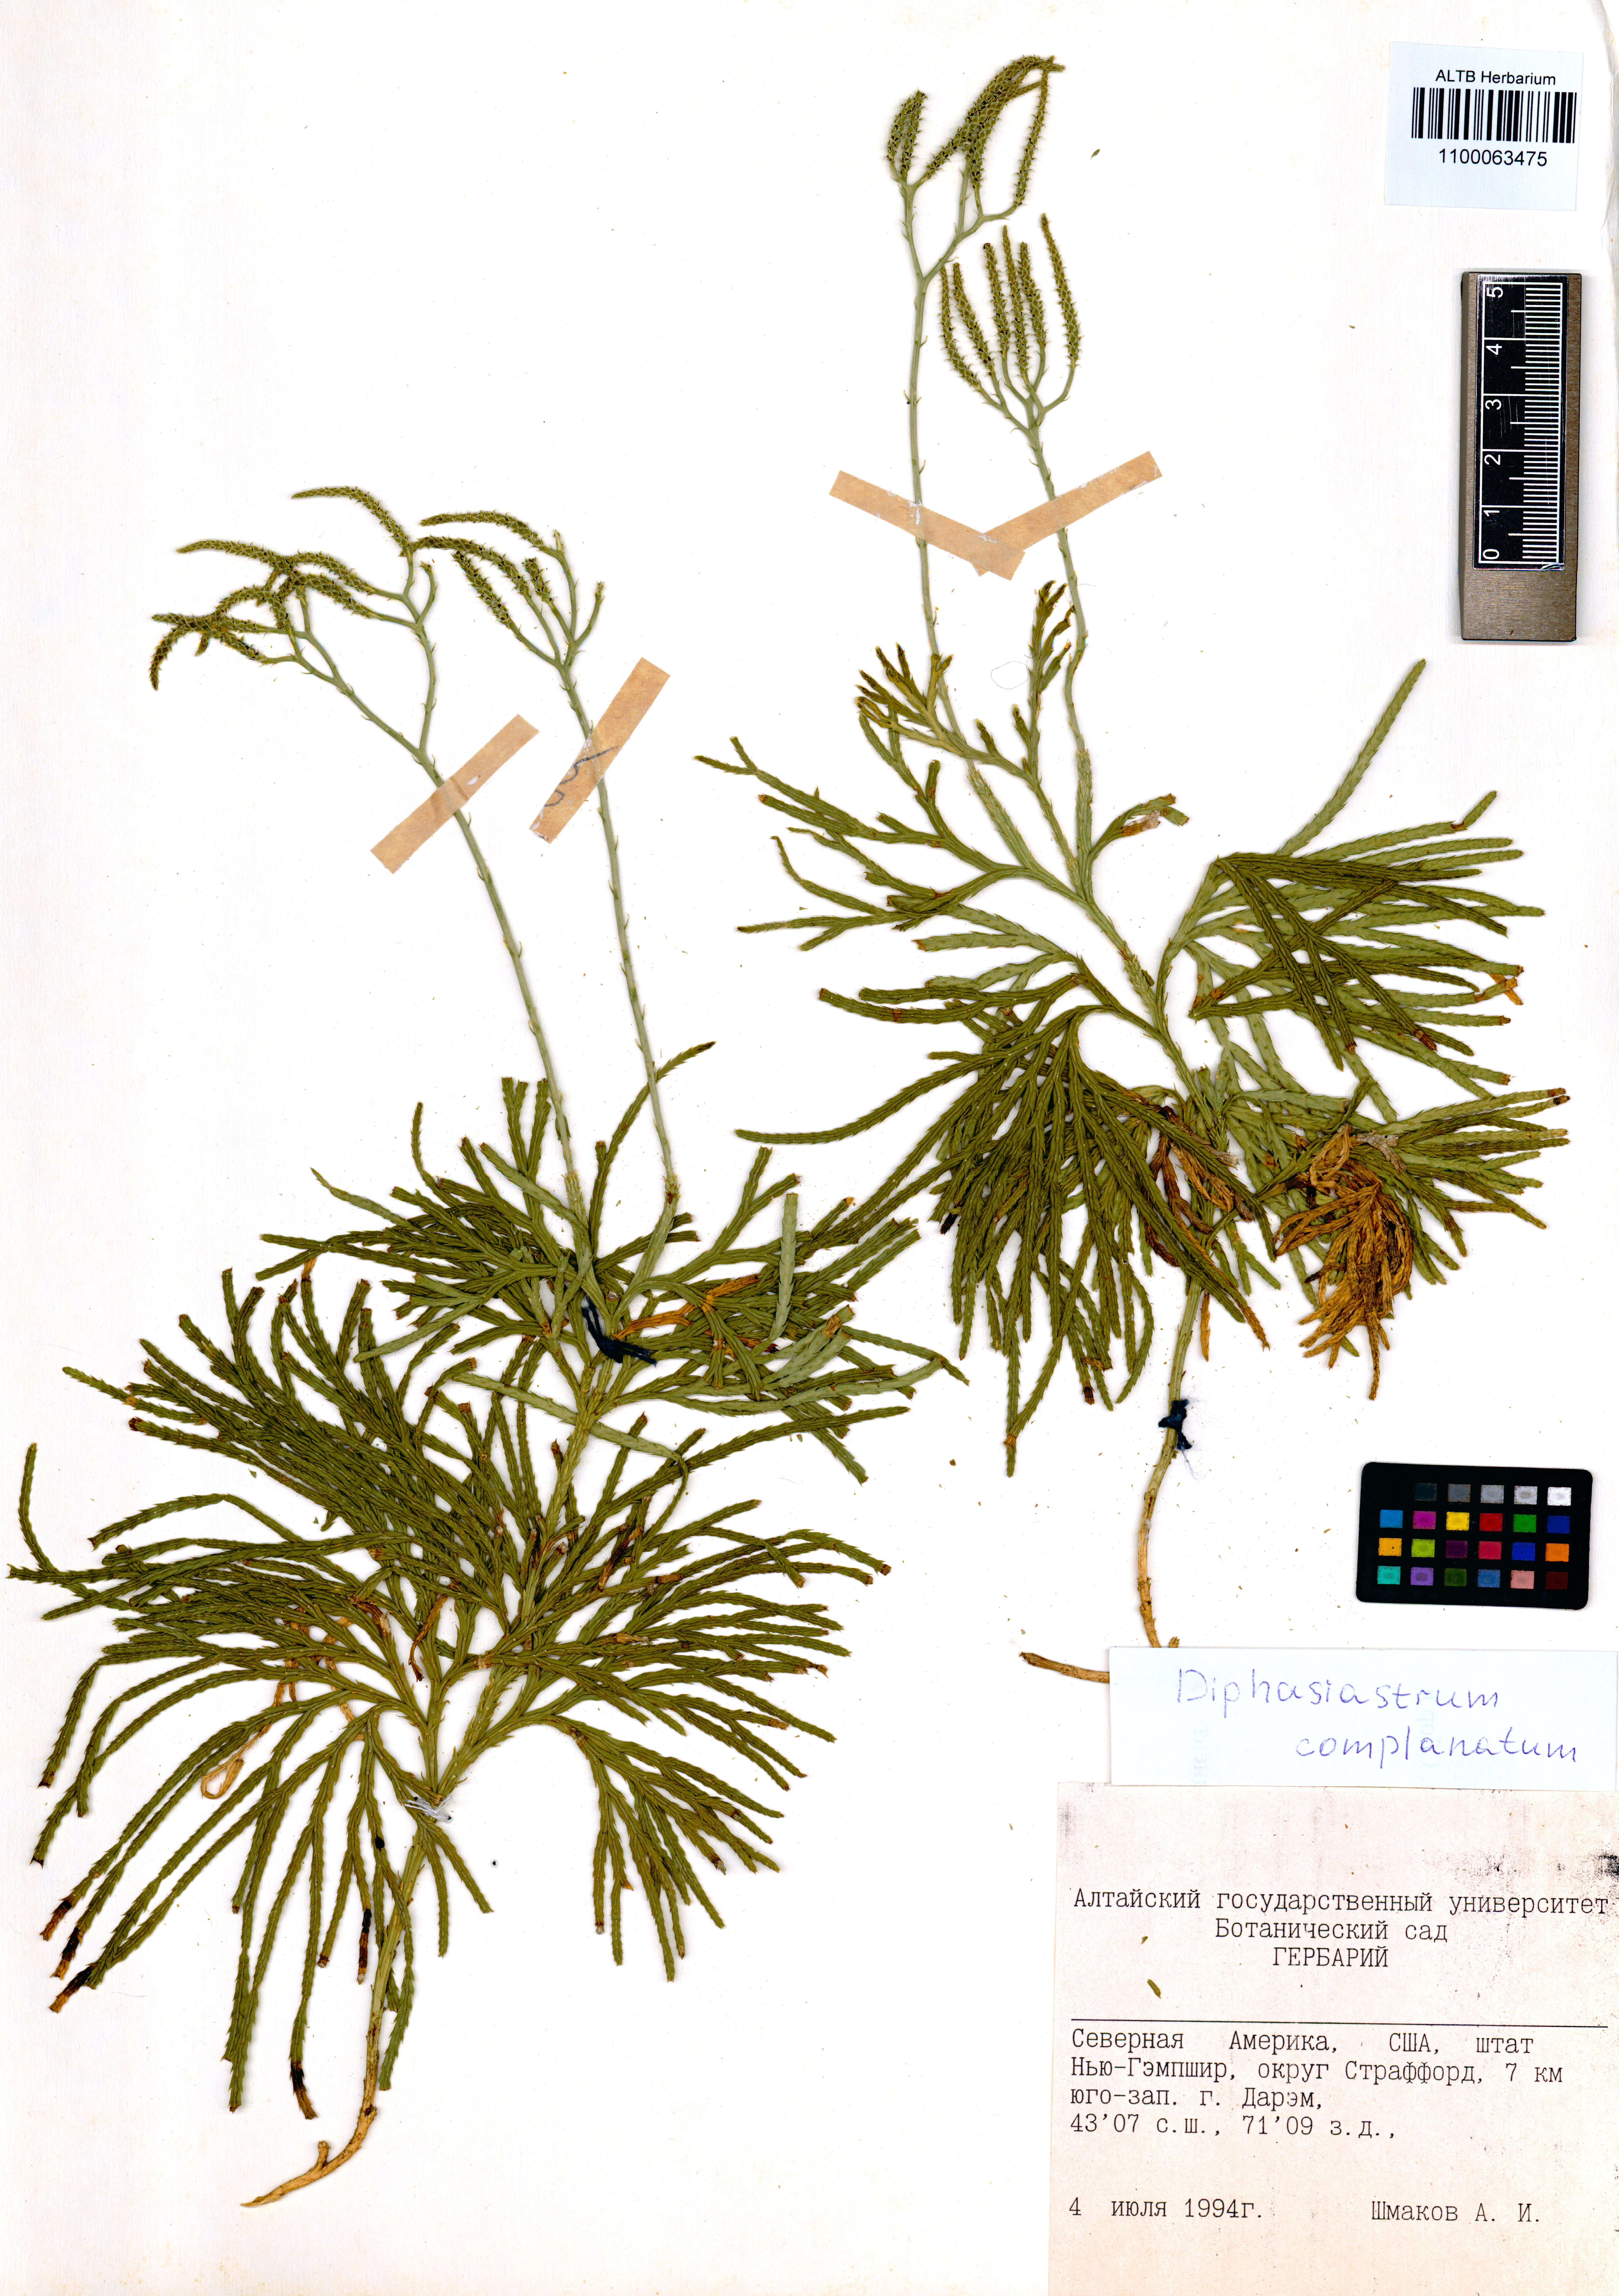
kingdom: Plantae
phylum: Tracheophyta
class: Lycopodiopsida
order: Lycopodiales
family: Lycopodiaceae
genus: Diphasiastrum
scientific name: Diphasiastrum complanatum
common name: Northern running-pine
